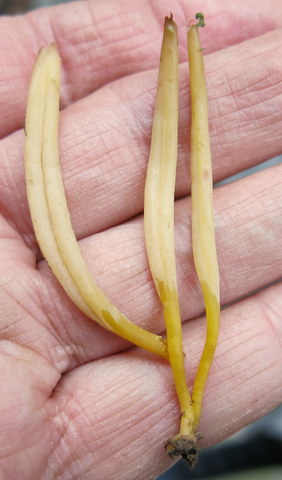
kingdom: Fungi
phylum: Basidiomycota
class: Agaricomycetes
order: Agaricales
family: Clavariaceae
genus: Clavaria
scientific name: Clavaria argillacea
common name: lerfarvet køllesvamp
